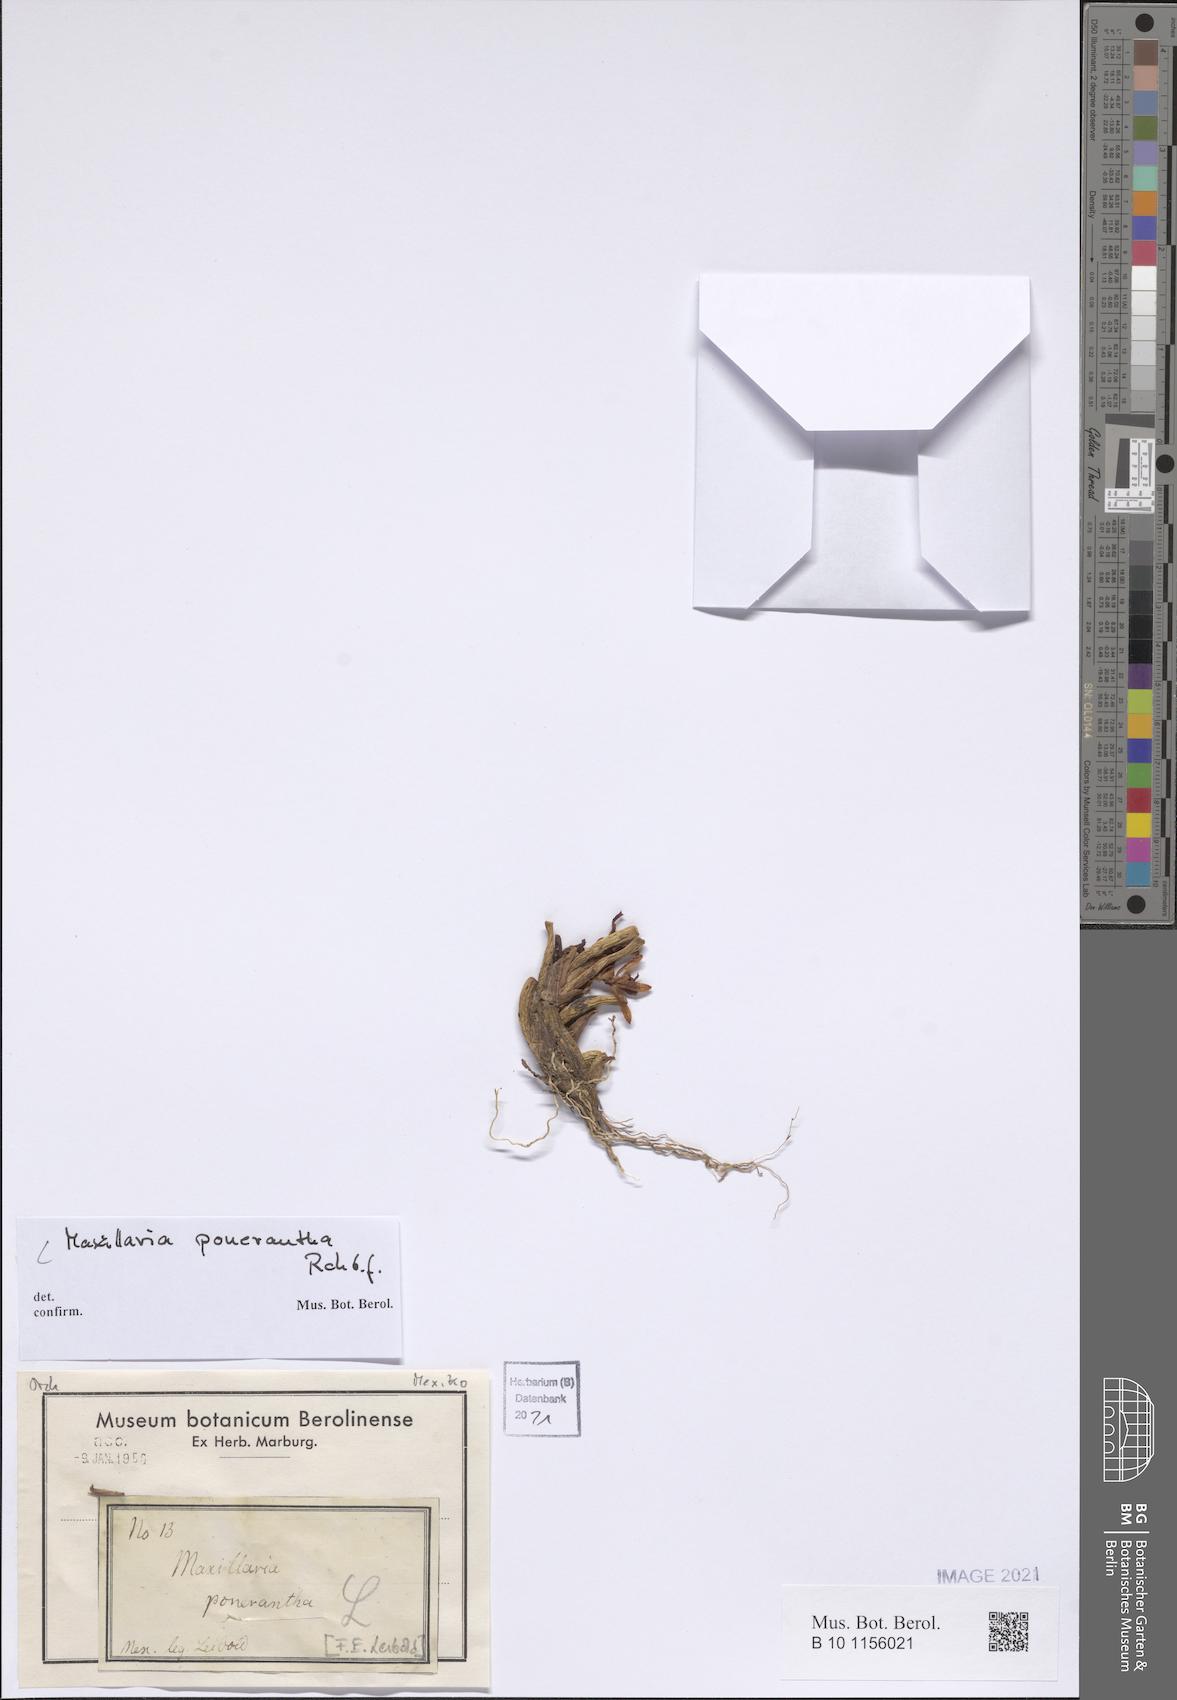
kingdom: Plantae
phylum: Tracheophyta
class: Liliopsida
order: Asparagales
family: Orchidaceae
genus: Maxillaria
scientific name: Maxillaria ponerantha
